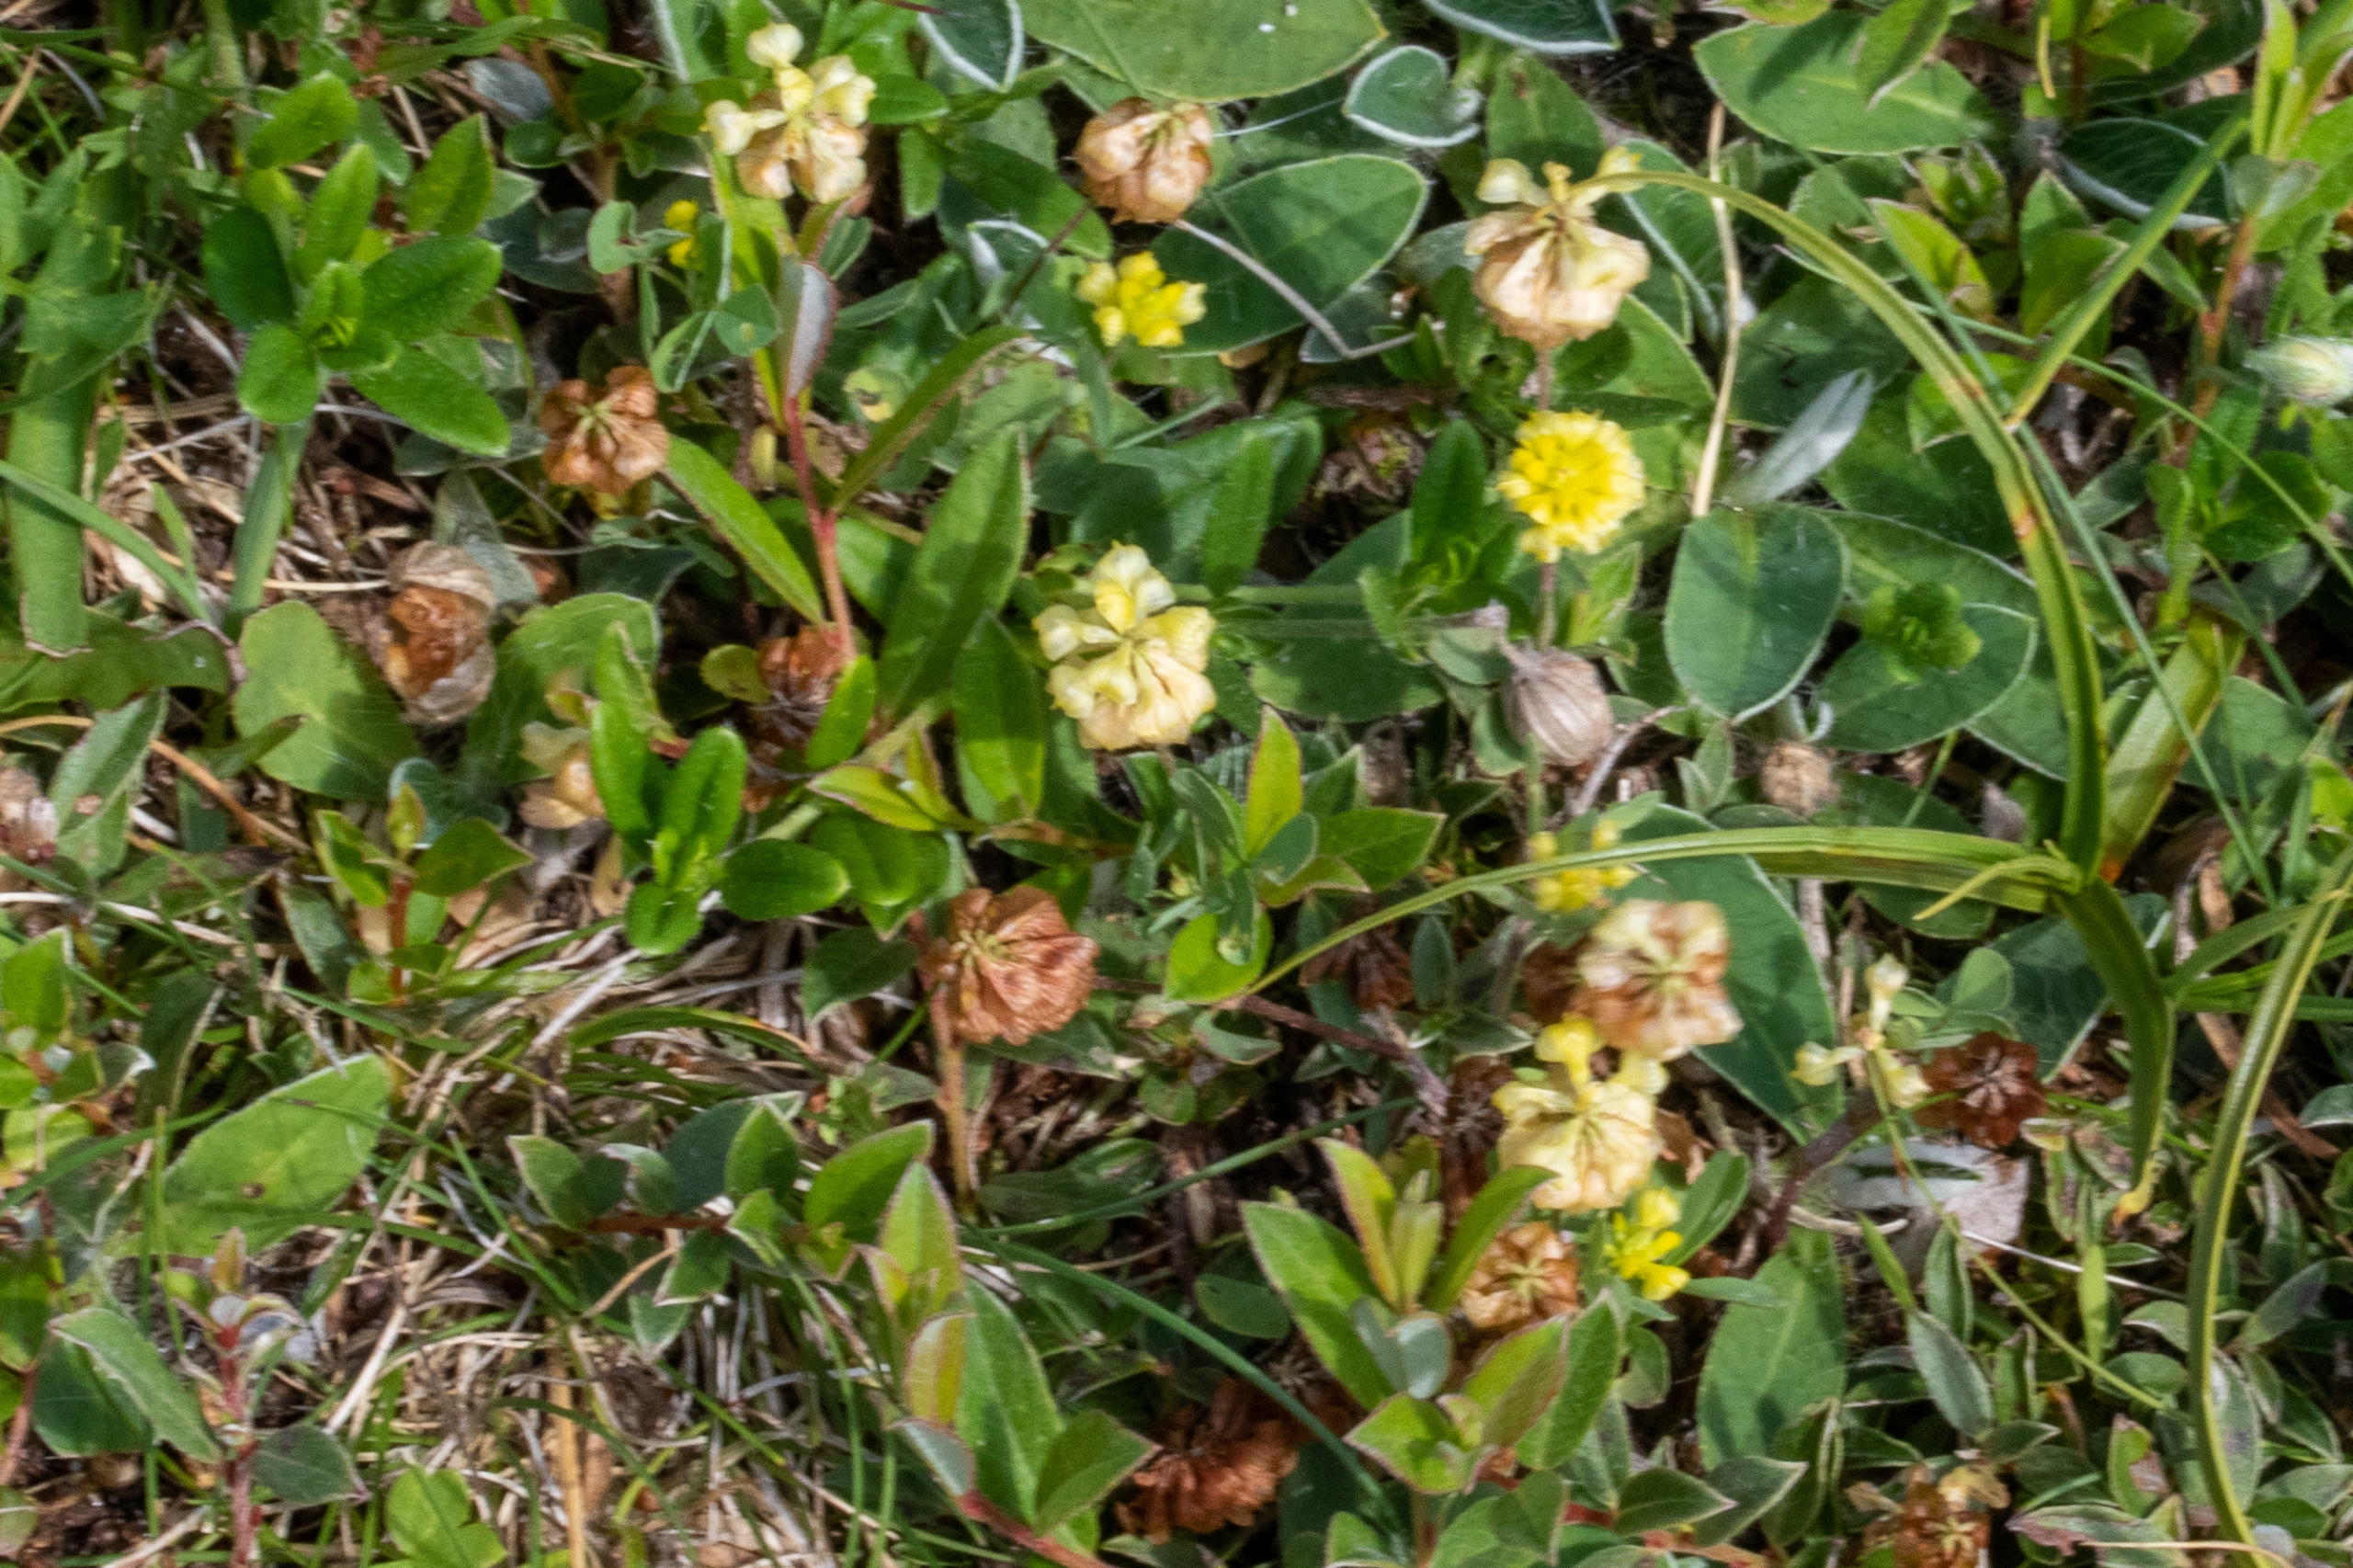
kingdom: Plantae
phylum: Tracheophyta
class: Magnoliopsida
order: Fabales
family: Fabaceae
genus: Trifolium
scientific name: Trifolium campestre
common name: Gul kløver
